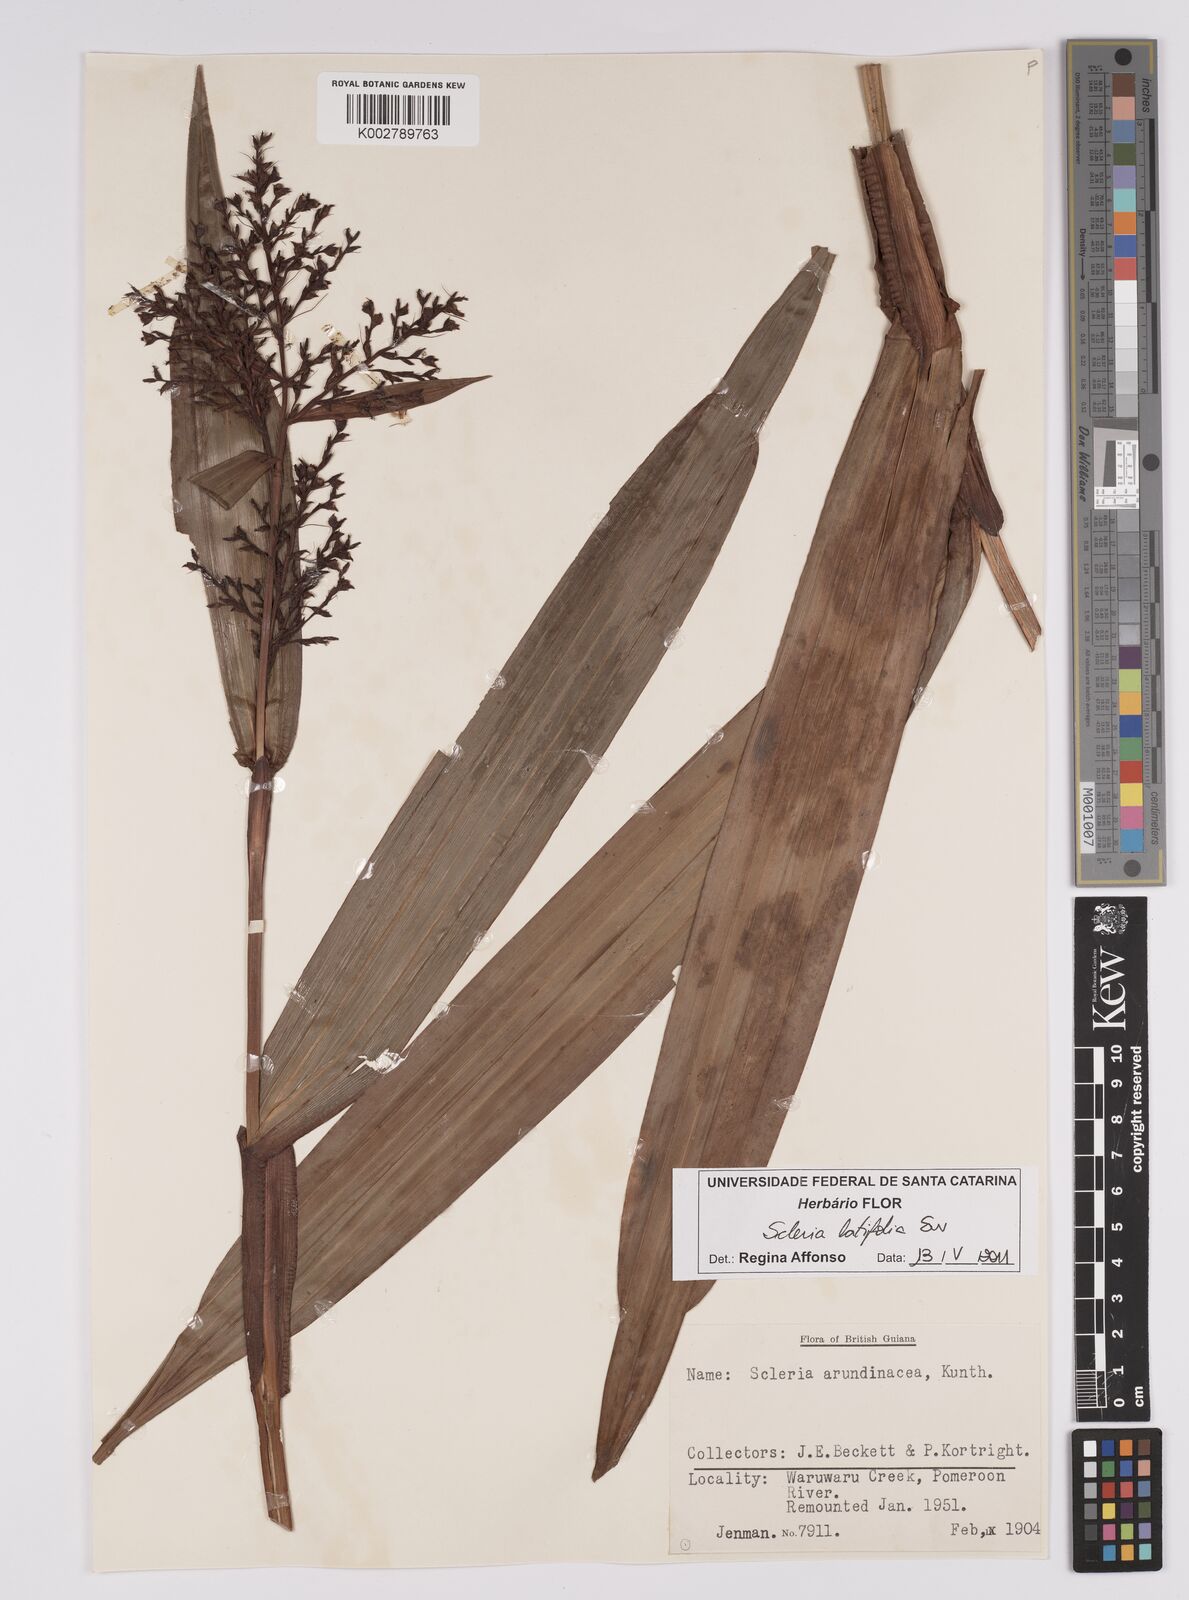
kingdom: Plantae
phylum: Tracheophyta
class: Liliopsida
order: Poales
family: Cyperaceae
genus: Scleria
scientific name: Scleria latifolia
